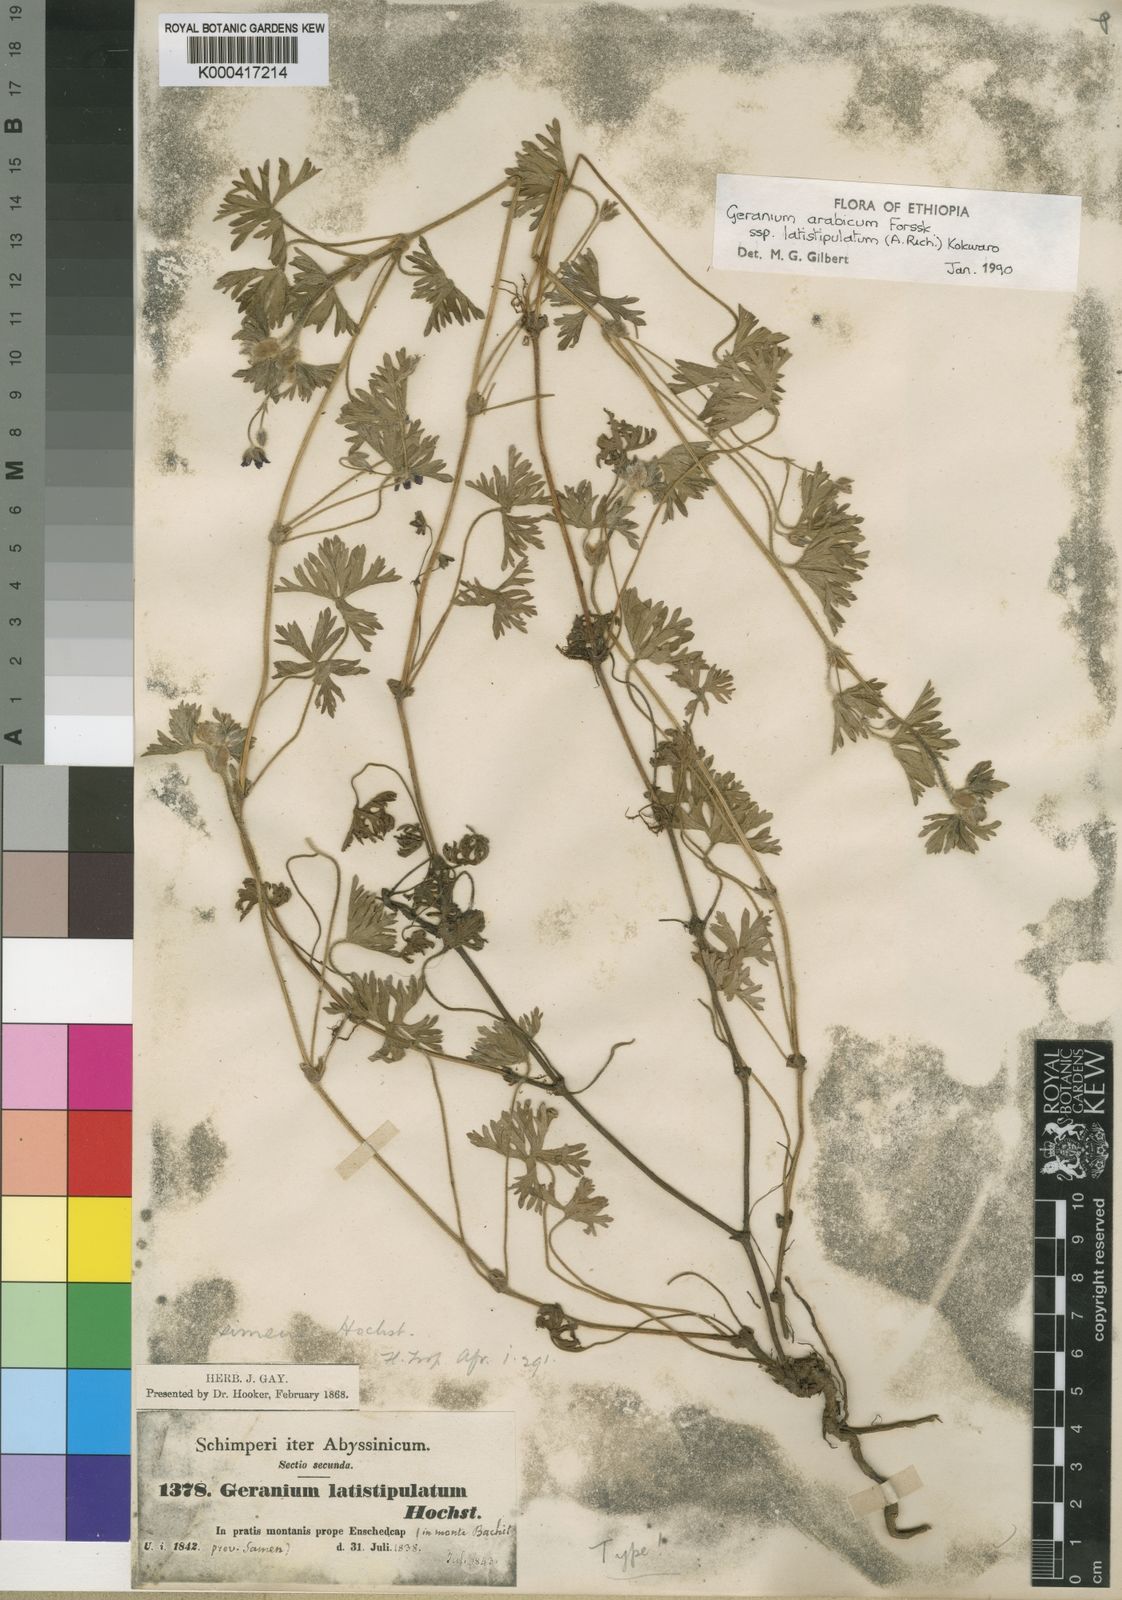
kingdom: Plantae
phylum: Tracheophyta
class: Magnoliopsida
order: Geraniales
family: Geraniaceae
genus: Geranium
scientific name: Geranium arabicum
